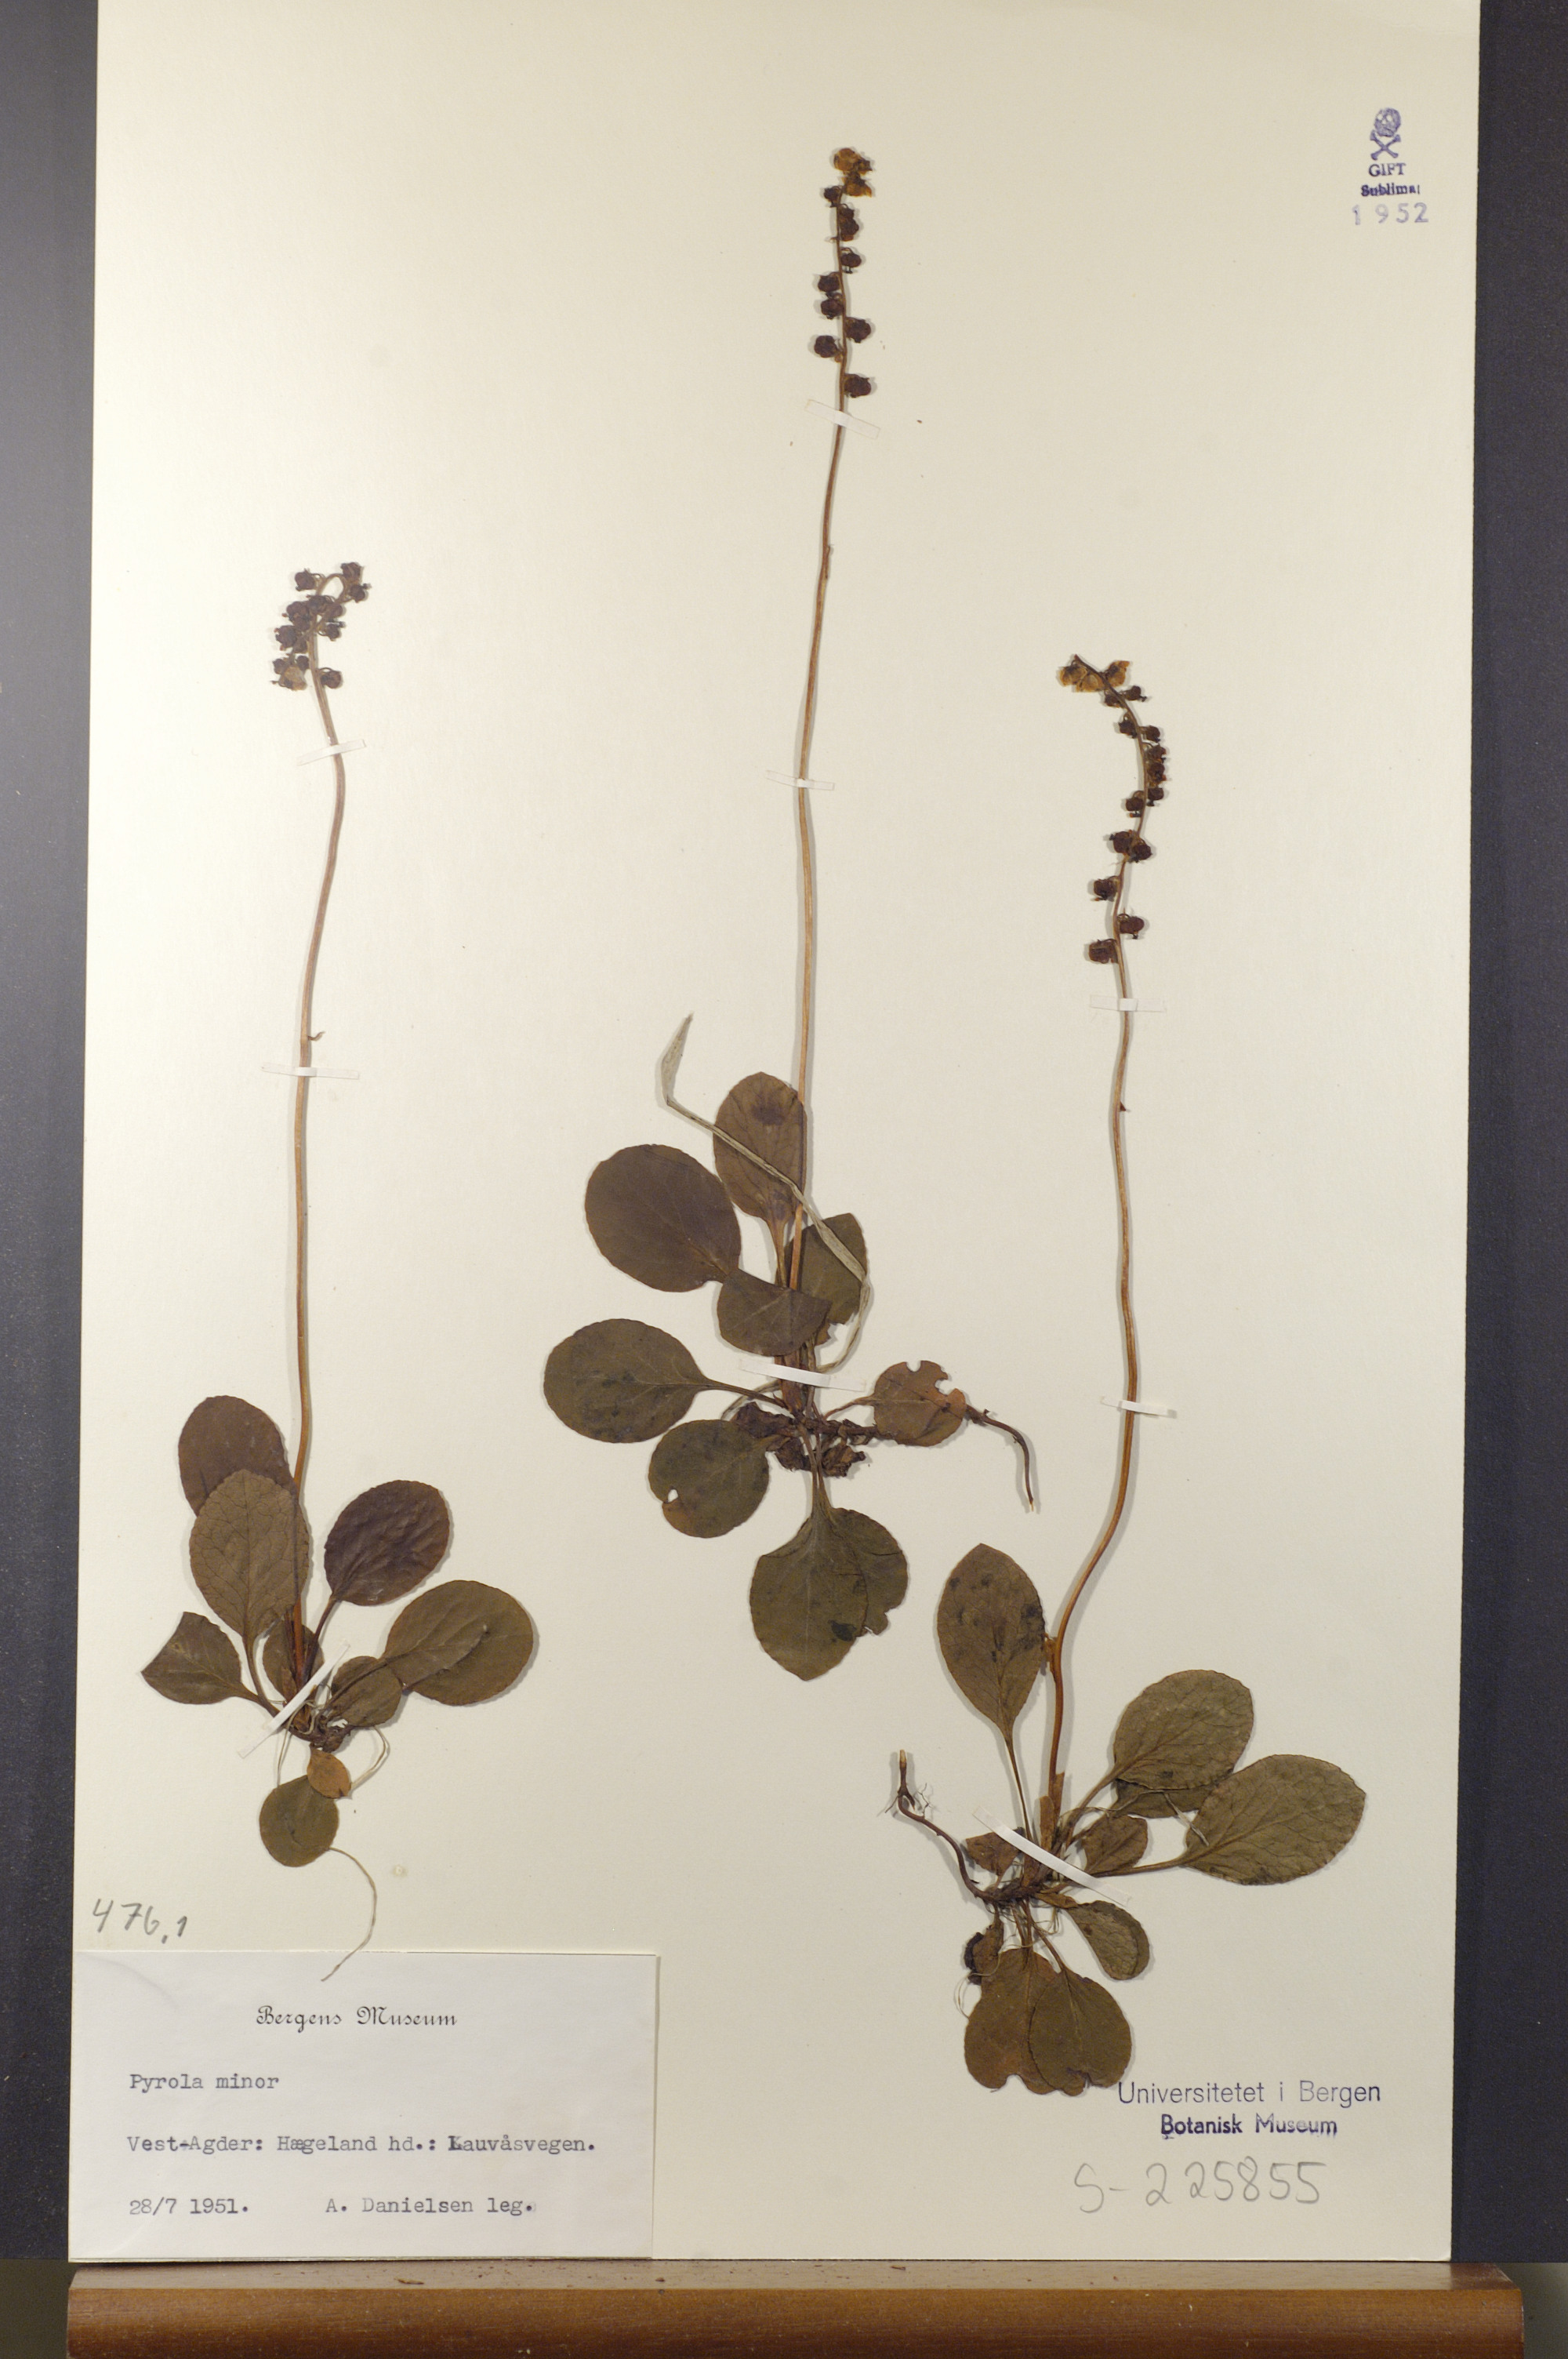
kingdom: Plantae
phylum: Tracheophyta
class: Magnoliopsida
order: Ericales
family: Ericaceae
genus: Pyrola
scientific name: Pyrola minor
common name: Common wintergreen
